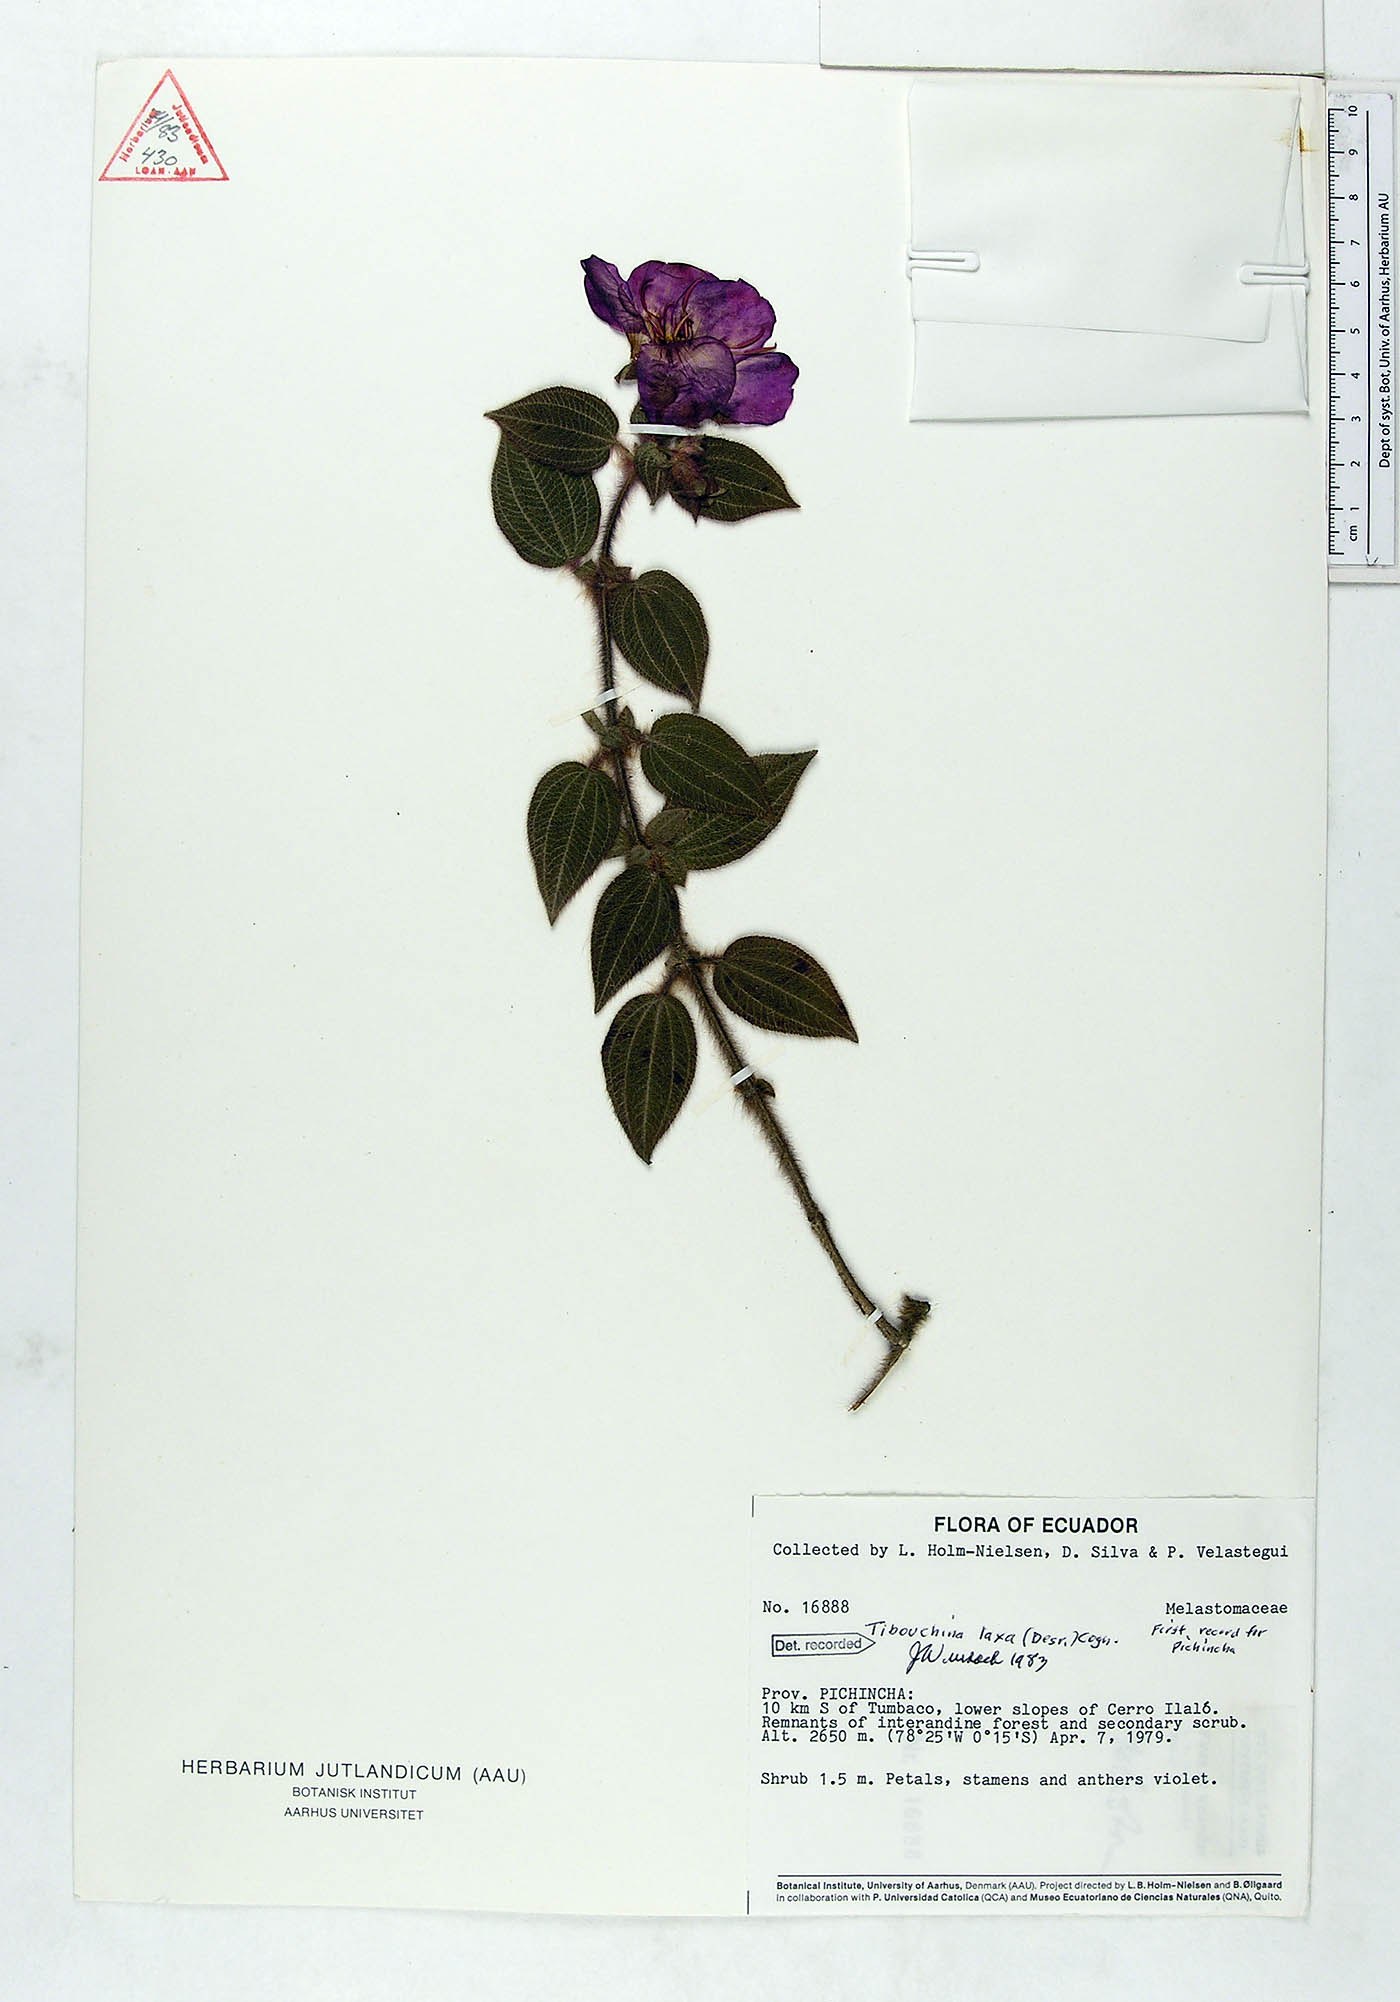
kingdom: Plantae
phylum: Tracheophyta
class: Magnoliopsida
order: Myrtales
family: Melastomataceae
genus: Chaetogastra
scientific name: Chaetogastra laxa
